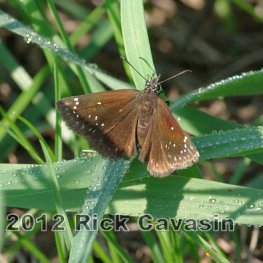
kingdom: Animalia
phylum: Arthropoda
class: Insecta
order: Lepidoptera
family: Hesperiidae
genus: Pholisora
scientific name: Pholisora catullus
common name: Common Sootywing
